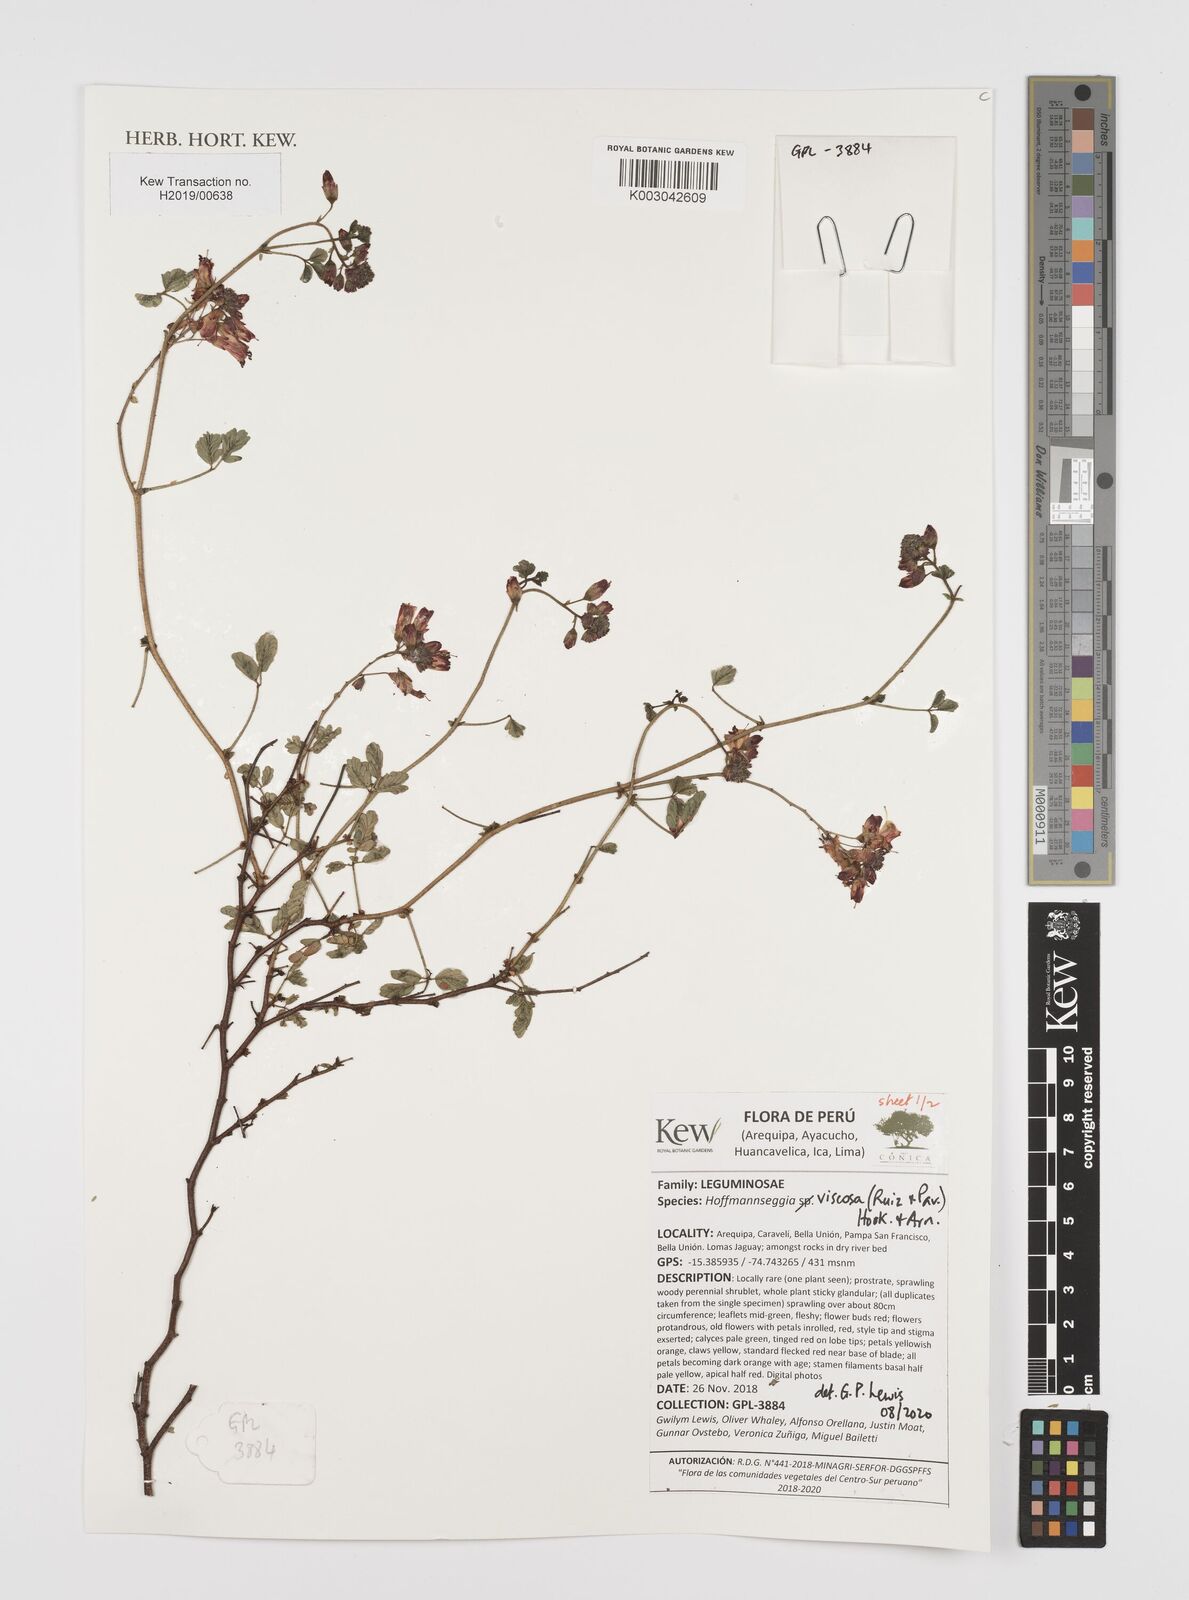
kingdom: Plantae
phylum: Tracheophyta
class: Magnoliopsida
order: Fabales
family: Fabaceae
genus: Hoffmannseggia
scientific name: Hoffmannseggia viscosa
